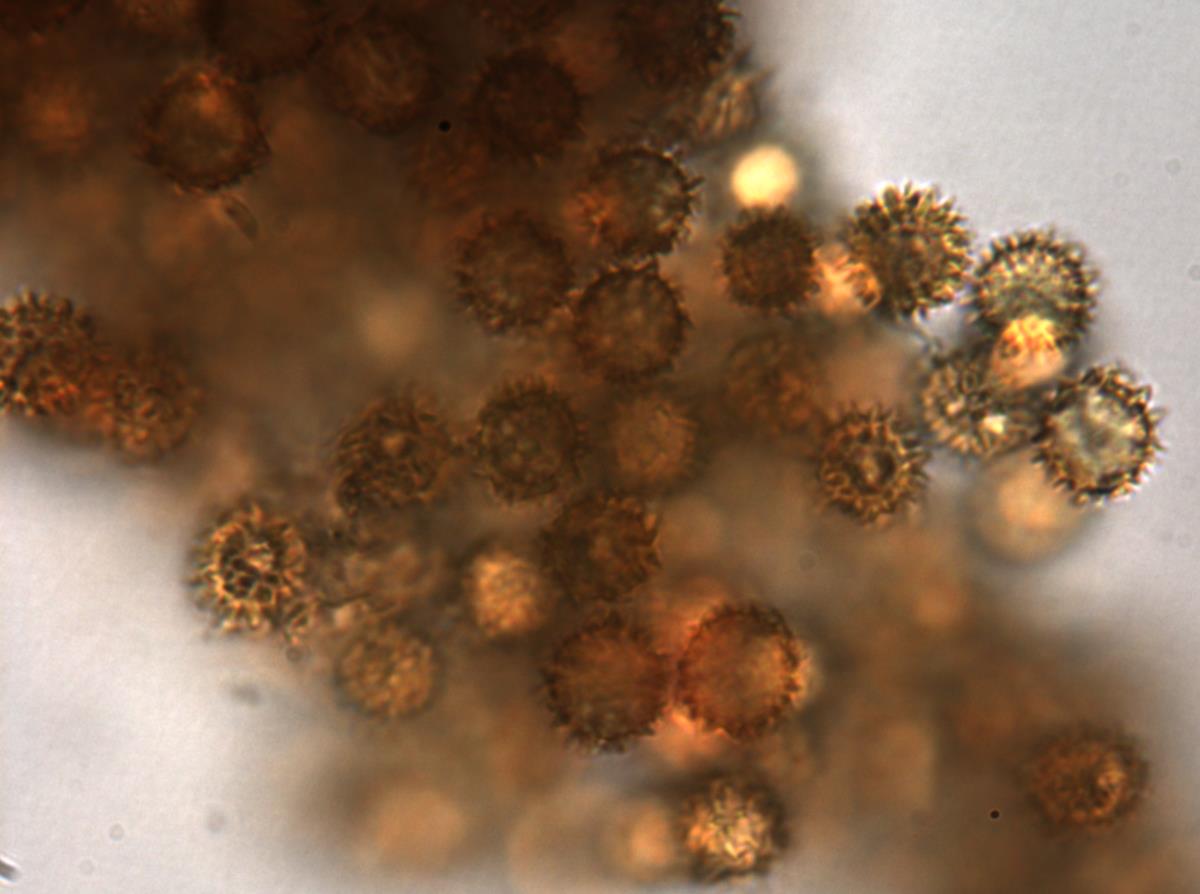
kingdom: Fungi
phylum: Basidiomycota
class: Agaricomycetes
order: Boletales
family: Sclerodermataceae
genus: Pisolithus
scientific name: Pisolithus albus
